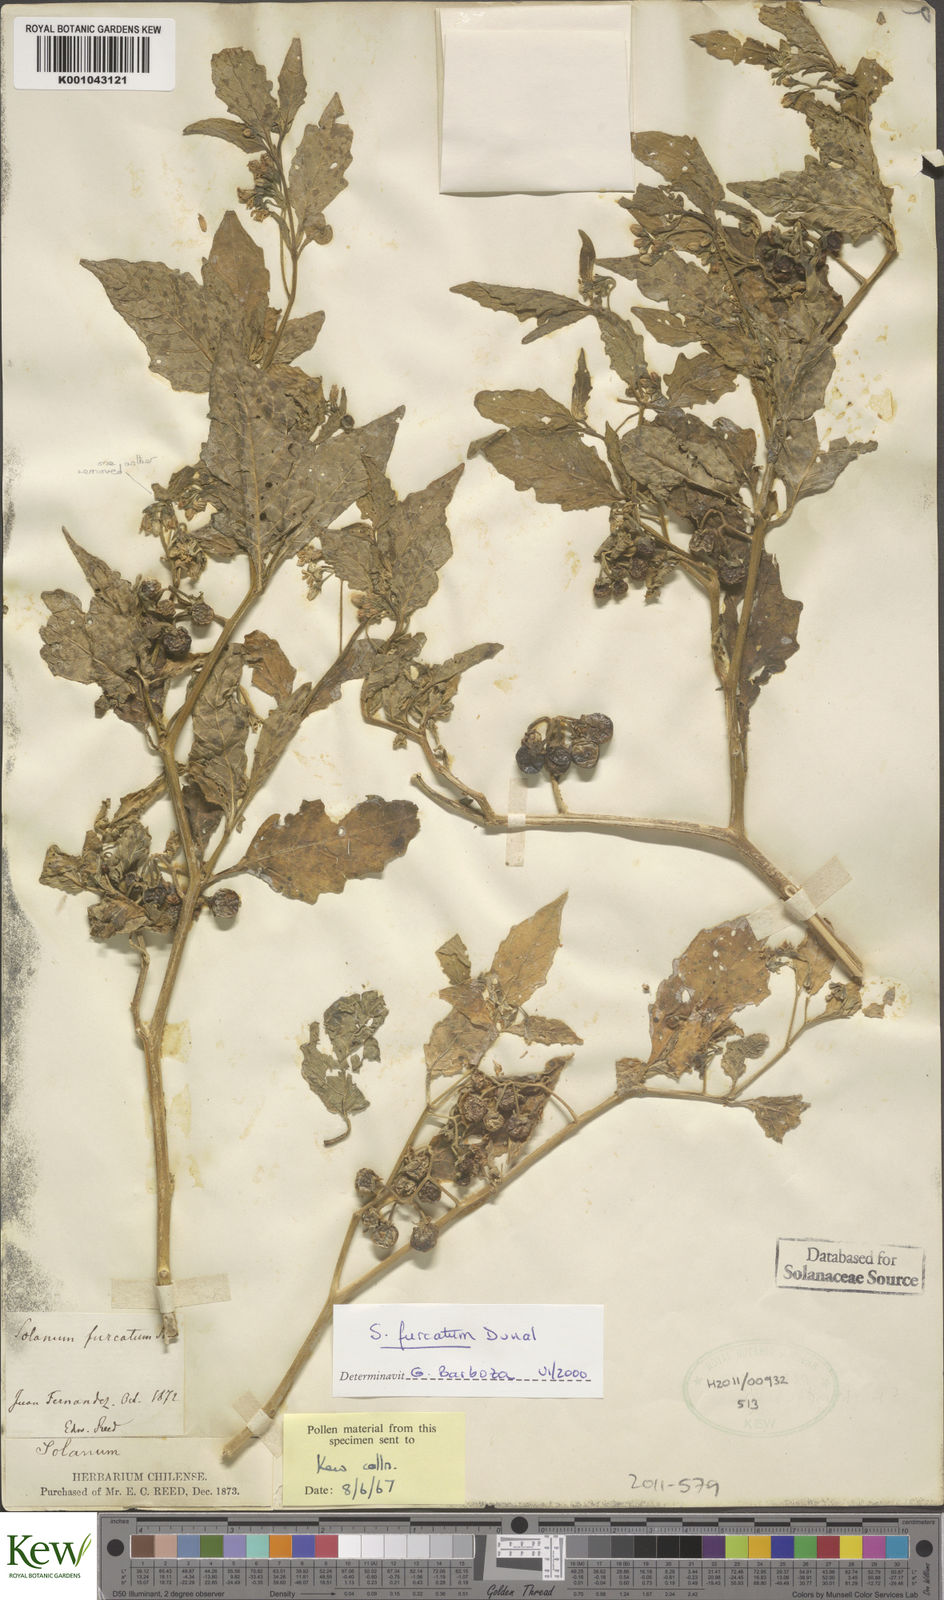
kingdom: Plantae
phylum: Tracheophyta
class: Magnoliopsida
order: Solanales
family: Solanaceae
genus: Solanum
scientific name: Solanum furcatum
